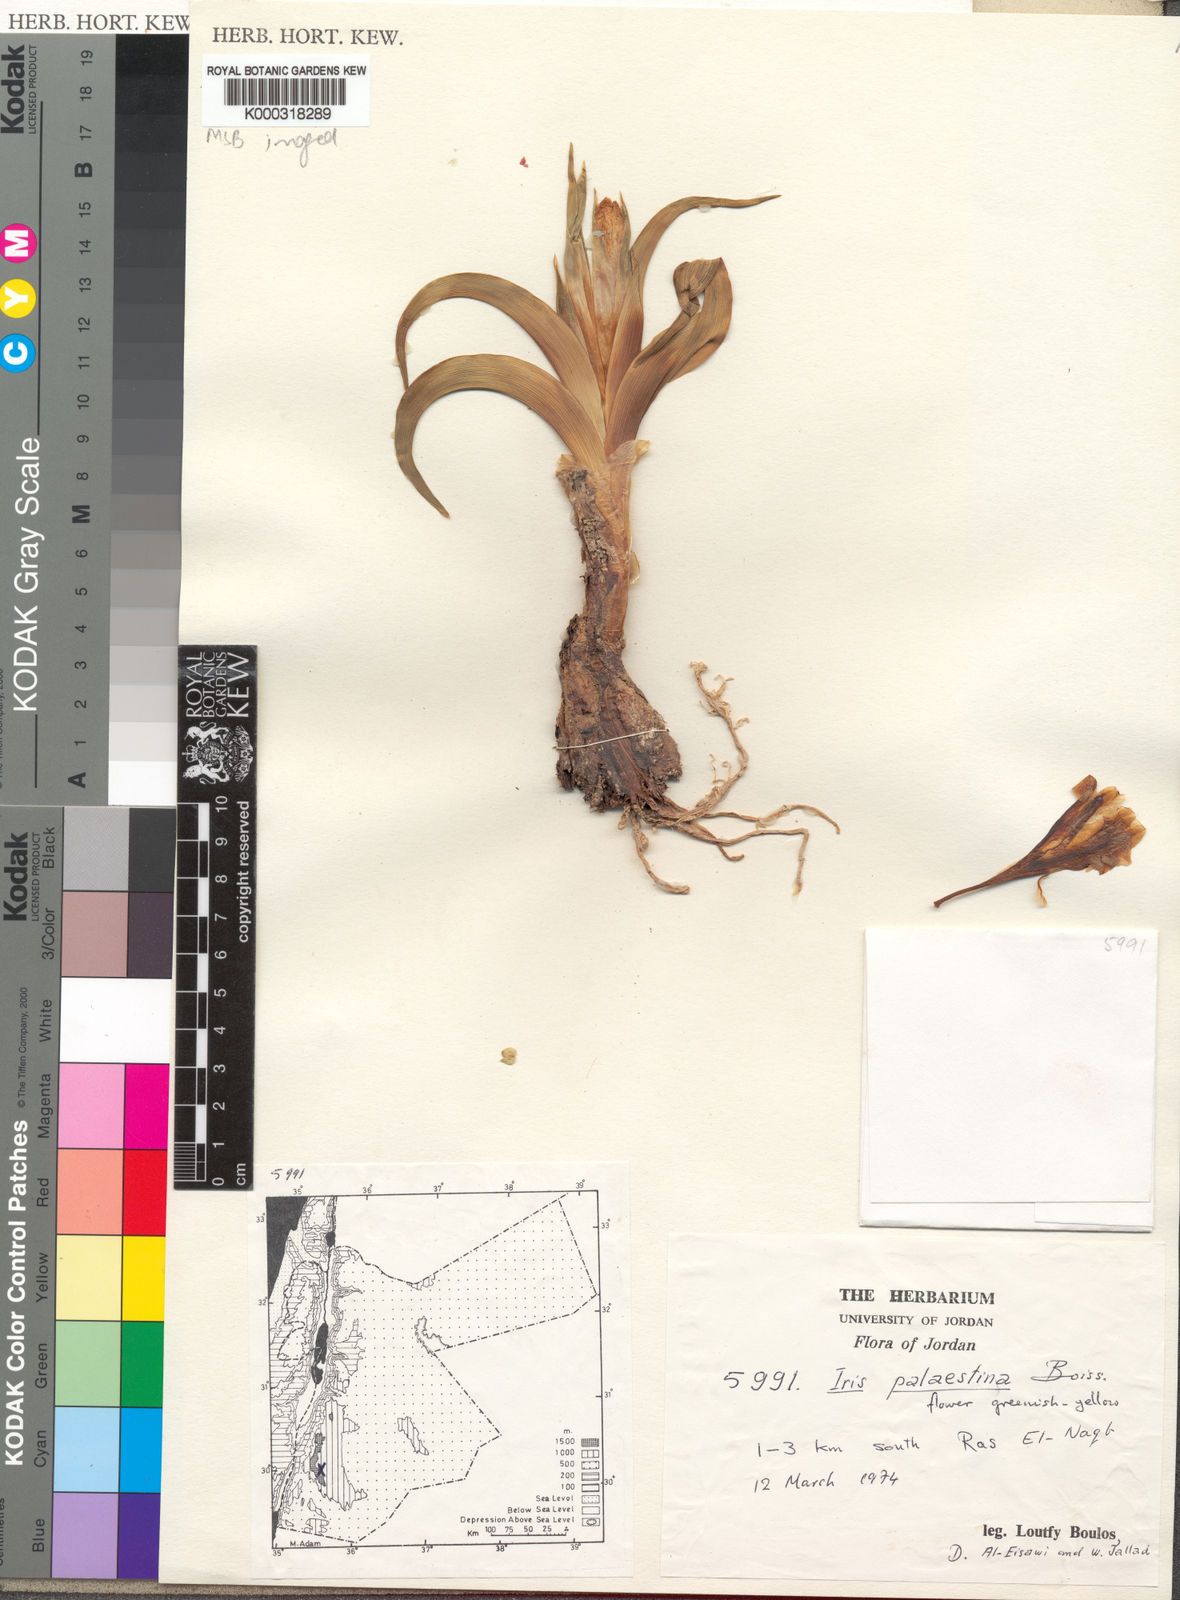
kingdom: Plantae
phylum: Tracheophyta
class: Liliopsida
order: Asparagales
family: Iridaceae
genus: Iris
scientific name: Iris regis-uzziae
